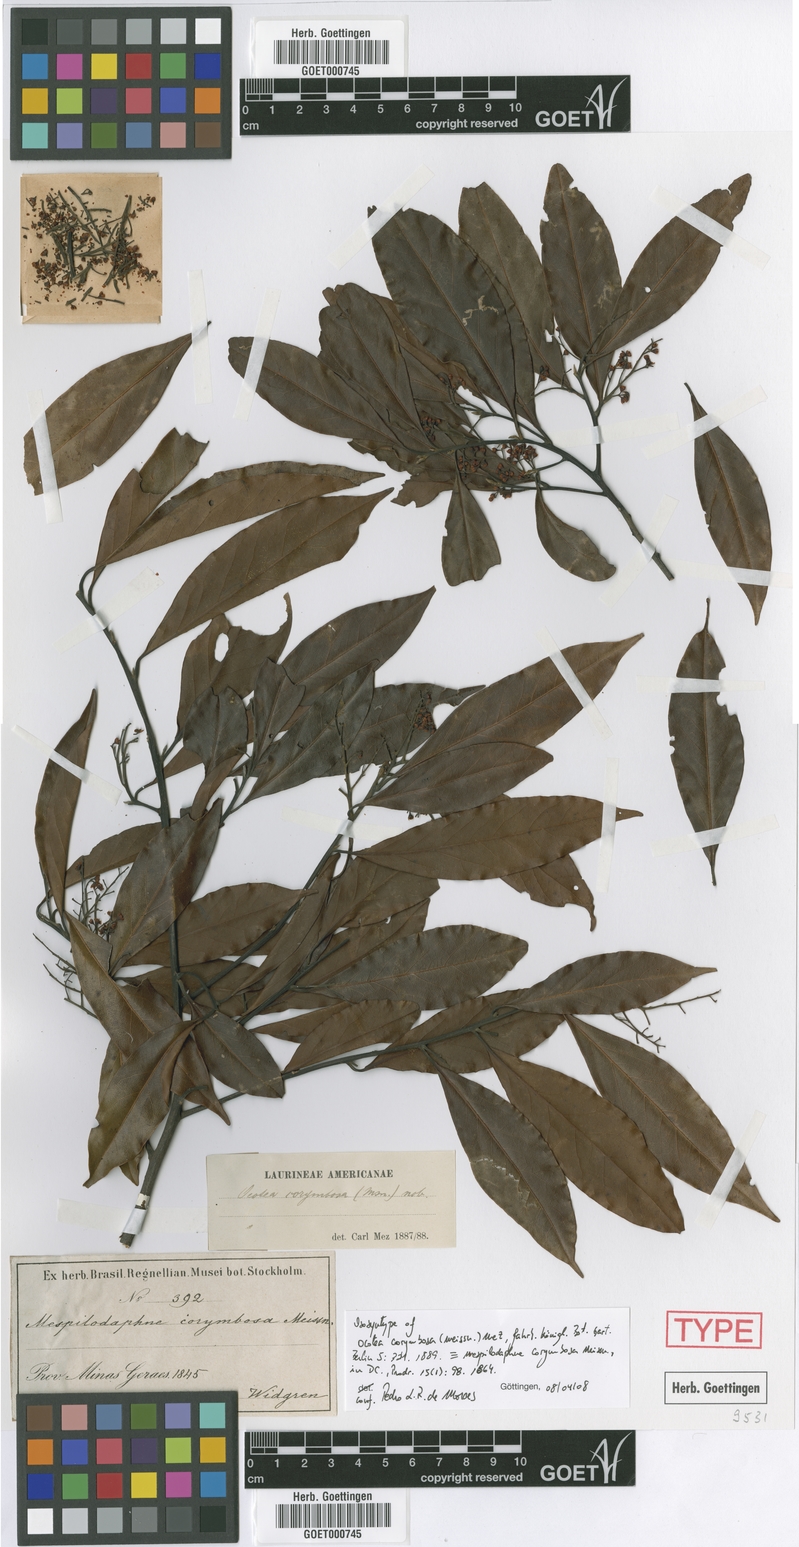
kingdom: Plantae
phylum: Tracheophyta
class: Magnoliopsida
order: Laurales
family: Lauraceae
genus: Mespilodaphne
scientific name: Mespilodaphne corymbosa
